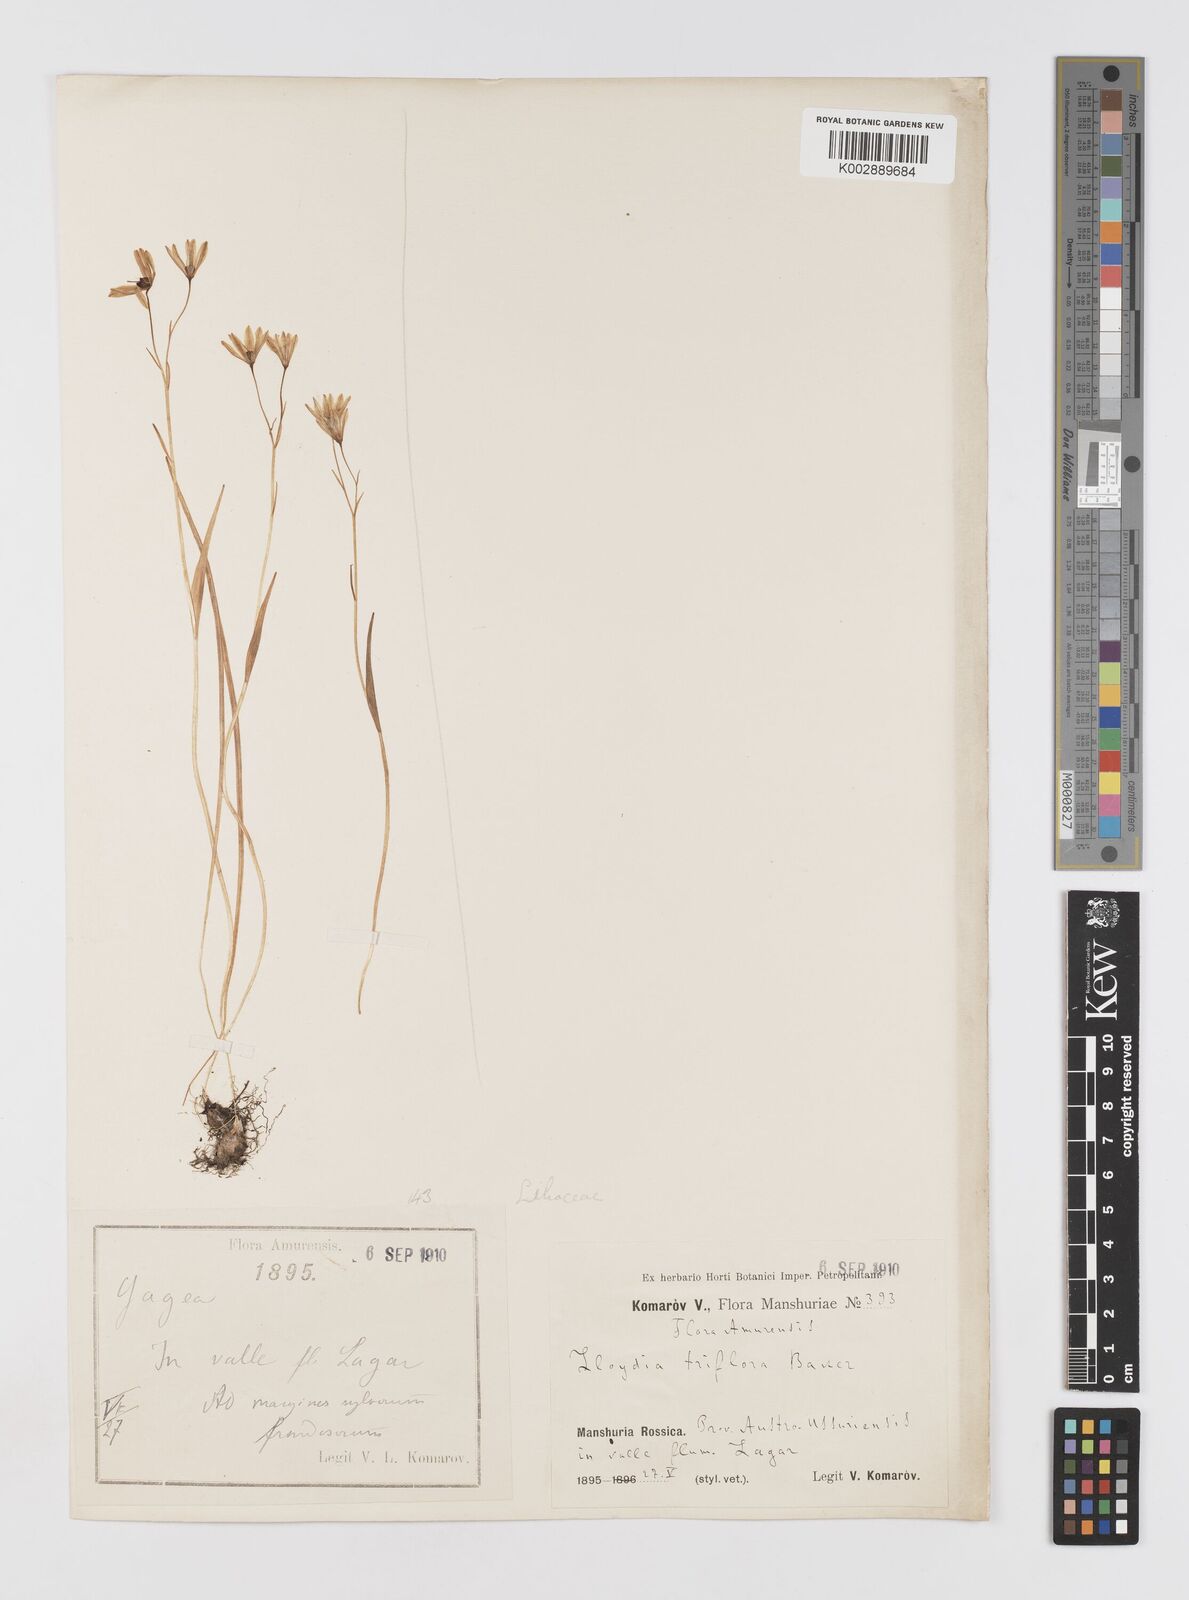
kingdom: Plantae
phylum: Tracheophyta
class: Liliopsida
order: Liliales
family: Liliaceae
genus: Gagea
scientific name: Gagea triflora
